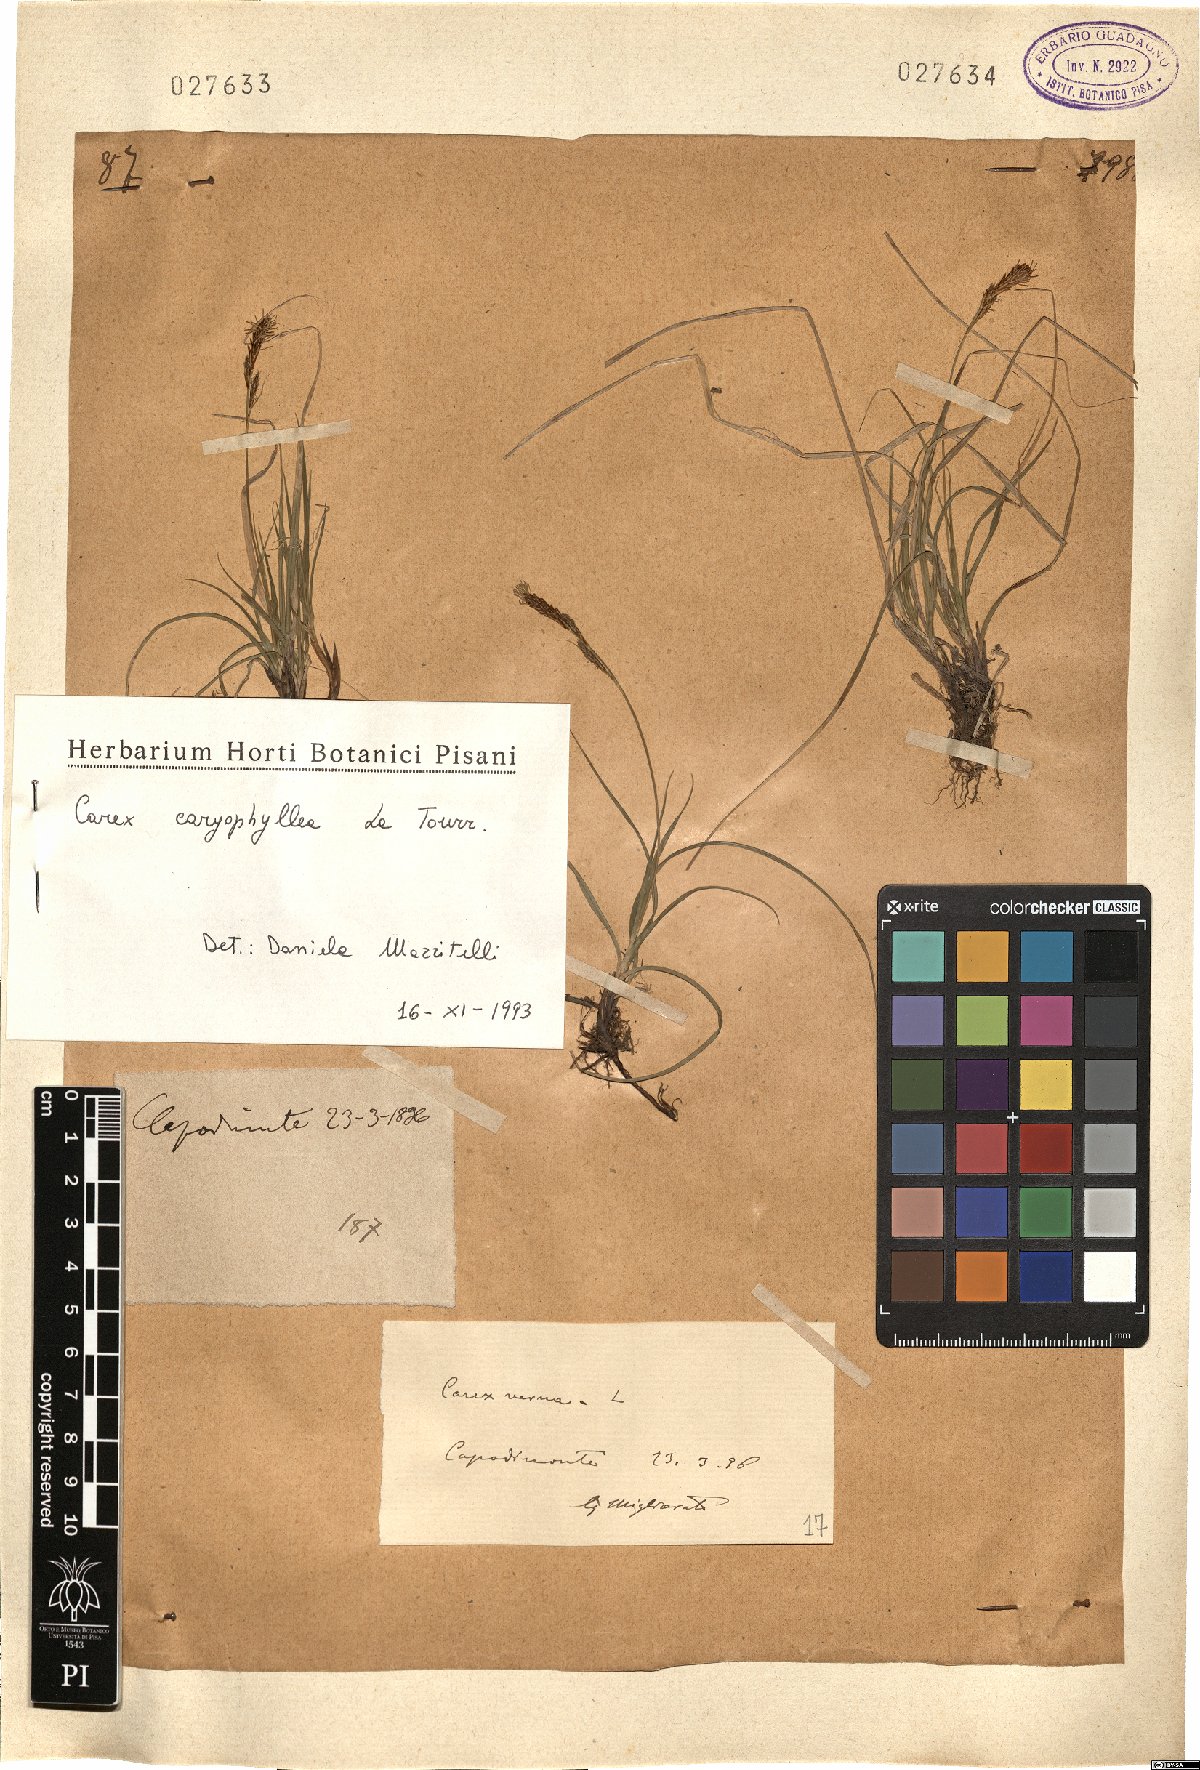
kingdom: Plantae
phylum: Tracheophyta
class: Liliopsida
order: Poales
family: Cyperaceae
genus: Carex
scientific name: Carex caryophyllea
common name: Spring sedge
